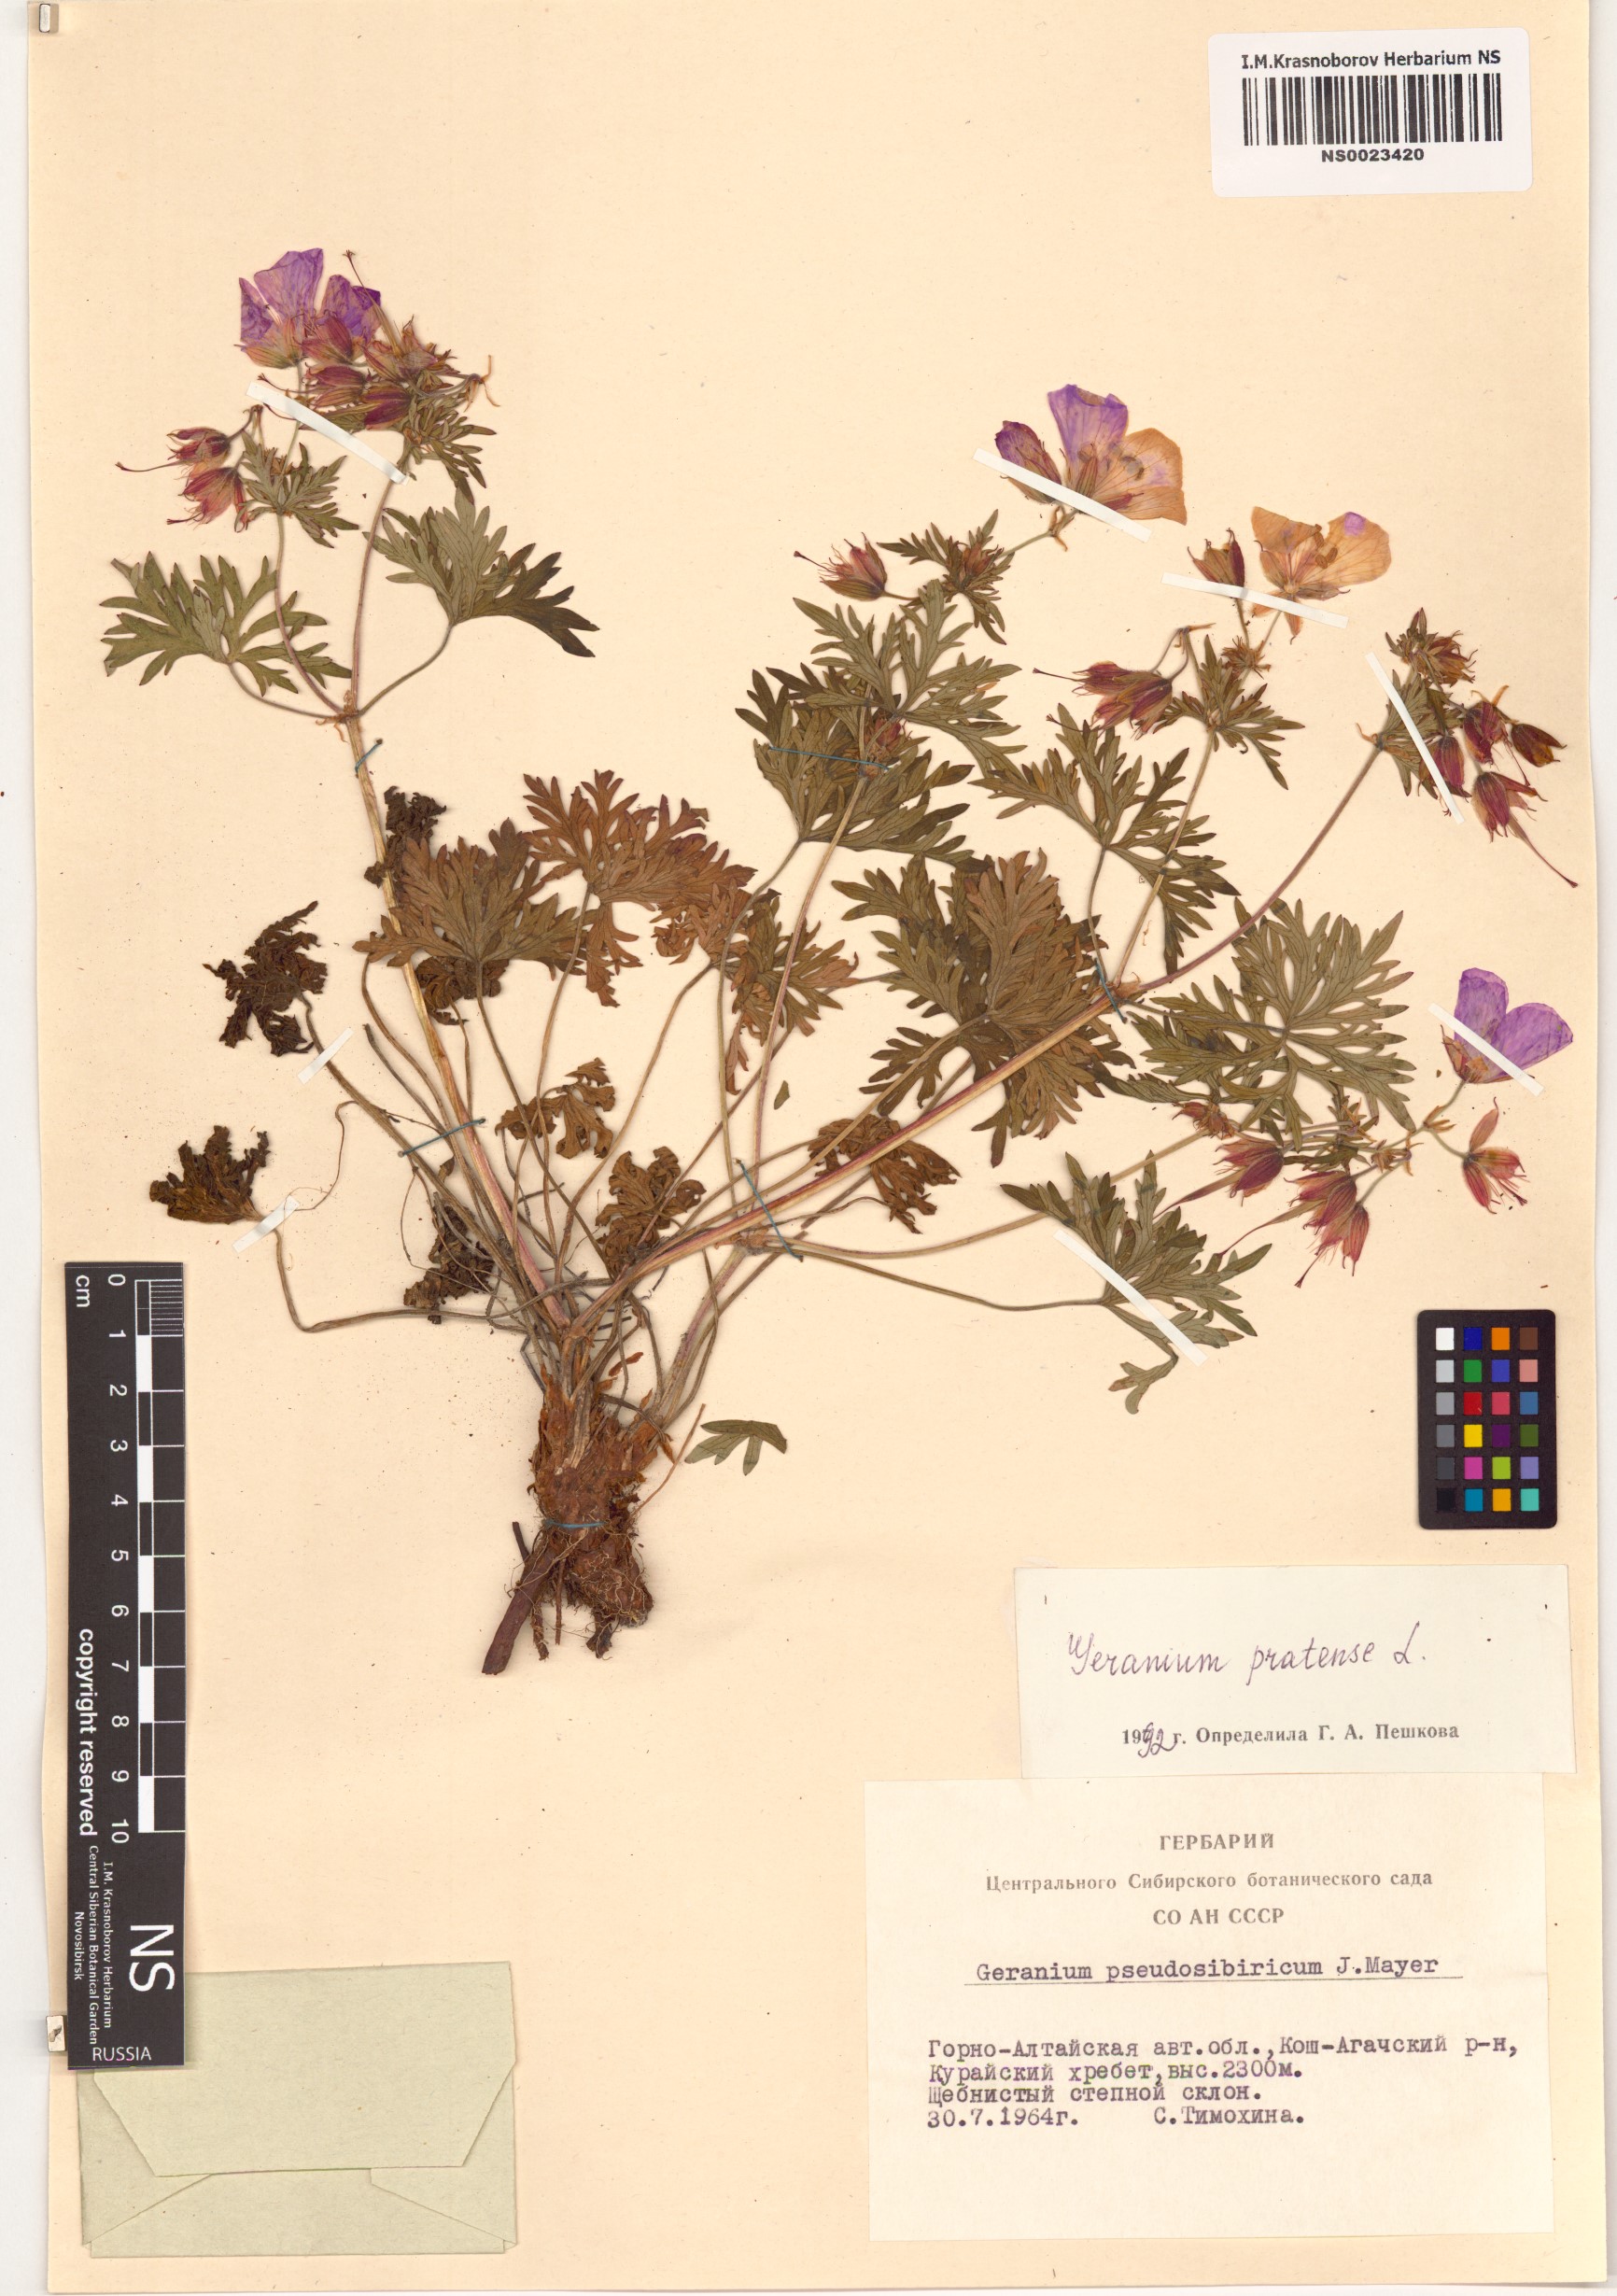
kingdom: Plantae
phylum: Tracheophyta
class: Magnoliopsida
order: Geraniales
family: Geraniaceae
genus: Geranium
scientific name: Geranium pratense
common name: Meadow crane's-bill
